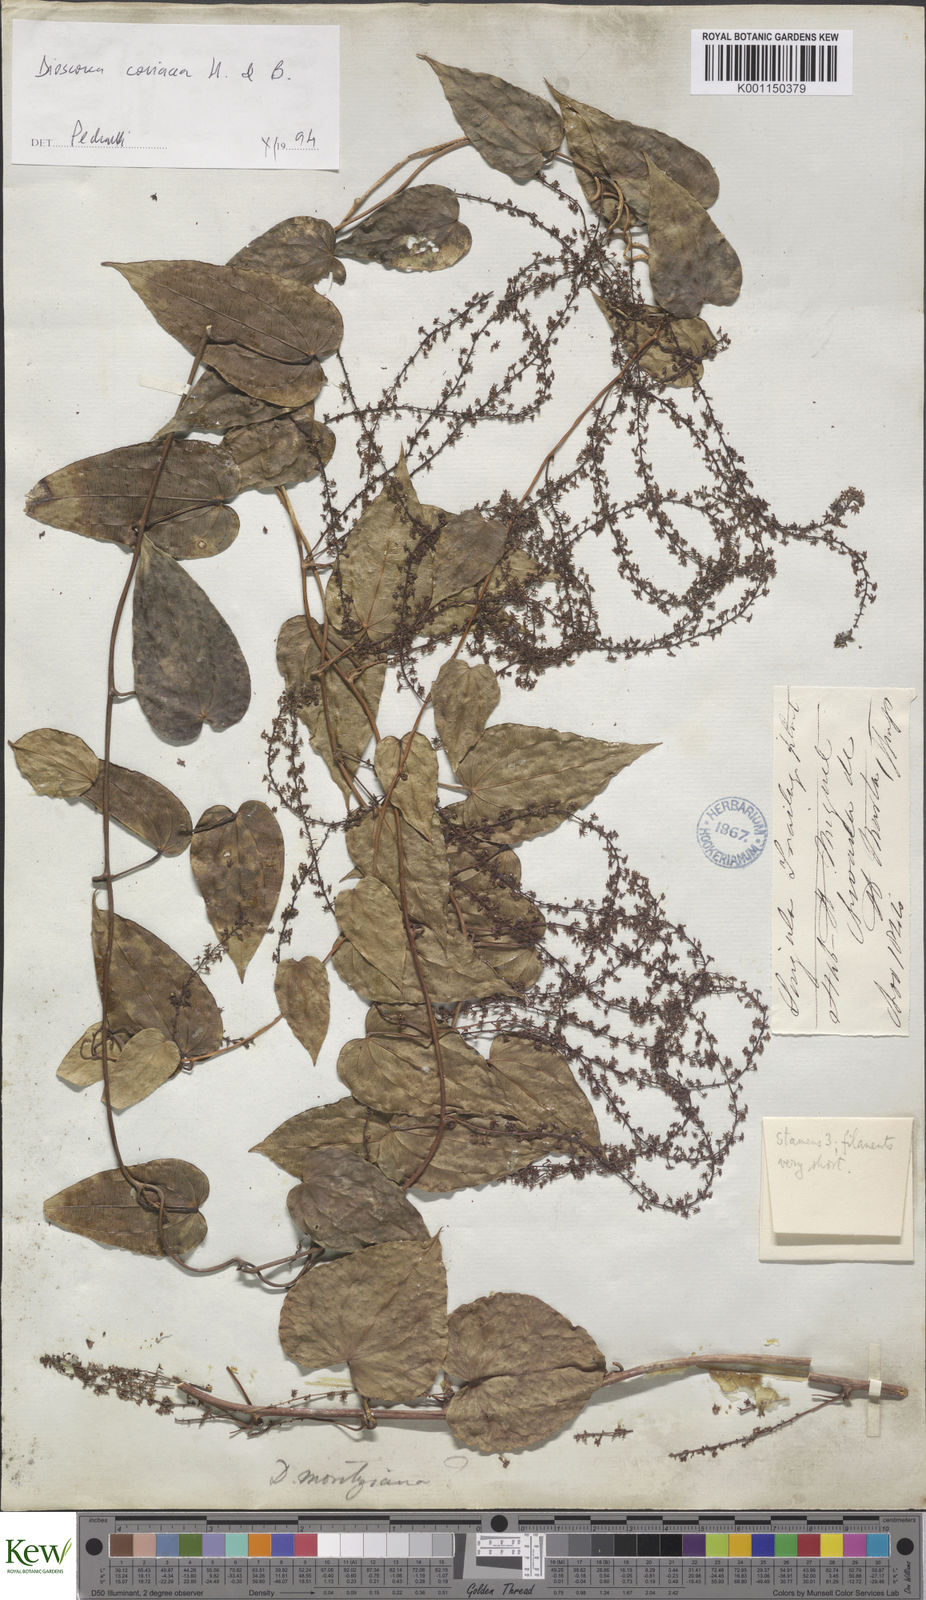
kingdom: Plantae
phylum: Tracheophyta
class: Liliopsida
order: Dioscoreales
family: Dioscoreaceae
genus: Dioscorea
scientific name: Dioscorea coriacea
